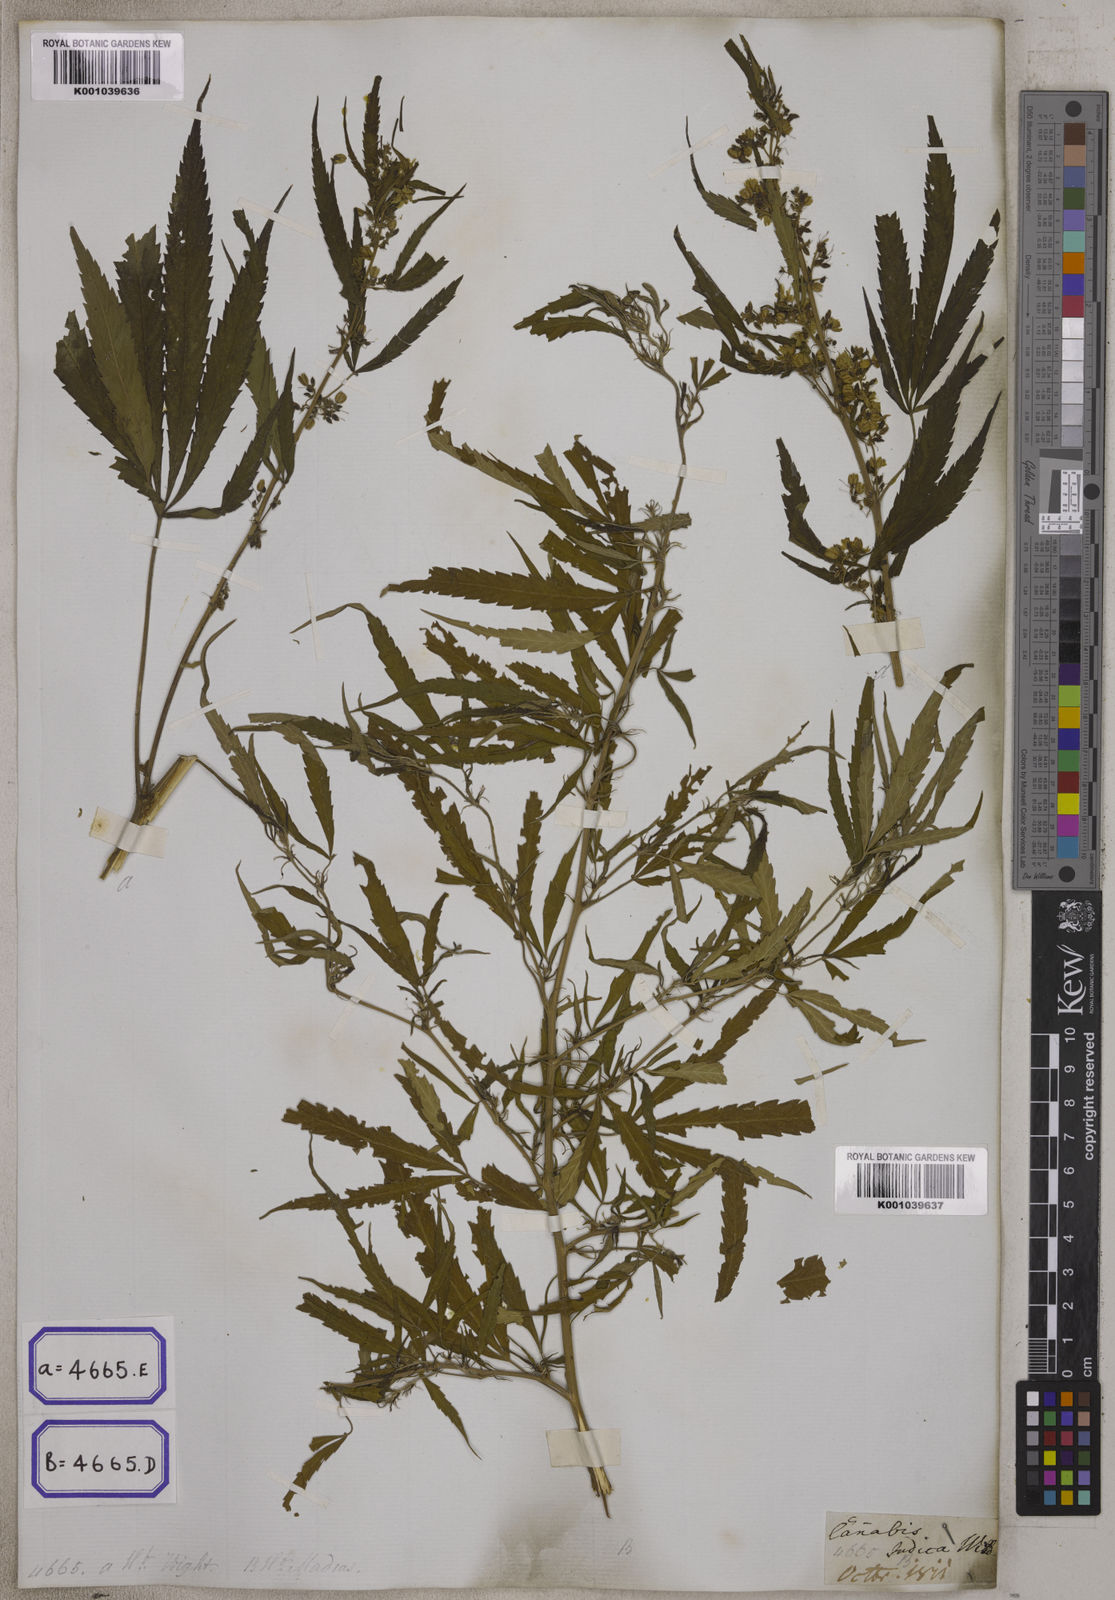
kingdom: Plantae
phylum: Tracheophyta
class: Magnoliopsida
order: Rosales
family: Cannabaceae
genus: Cannabis
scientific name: Cannabis sativa
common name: Hemp
